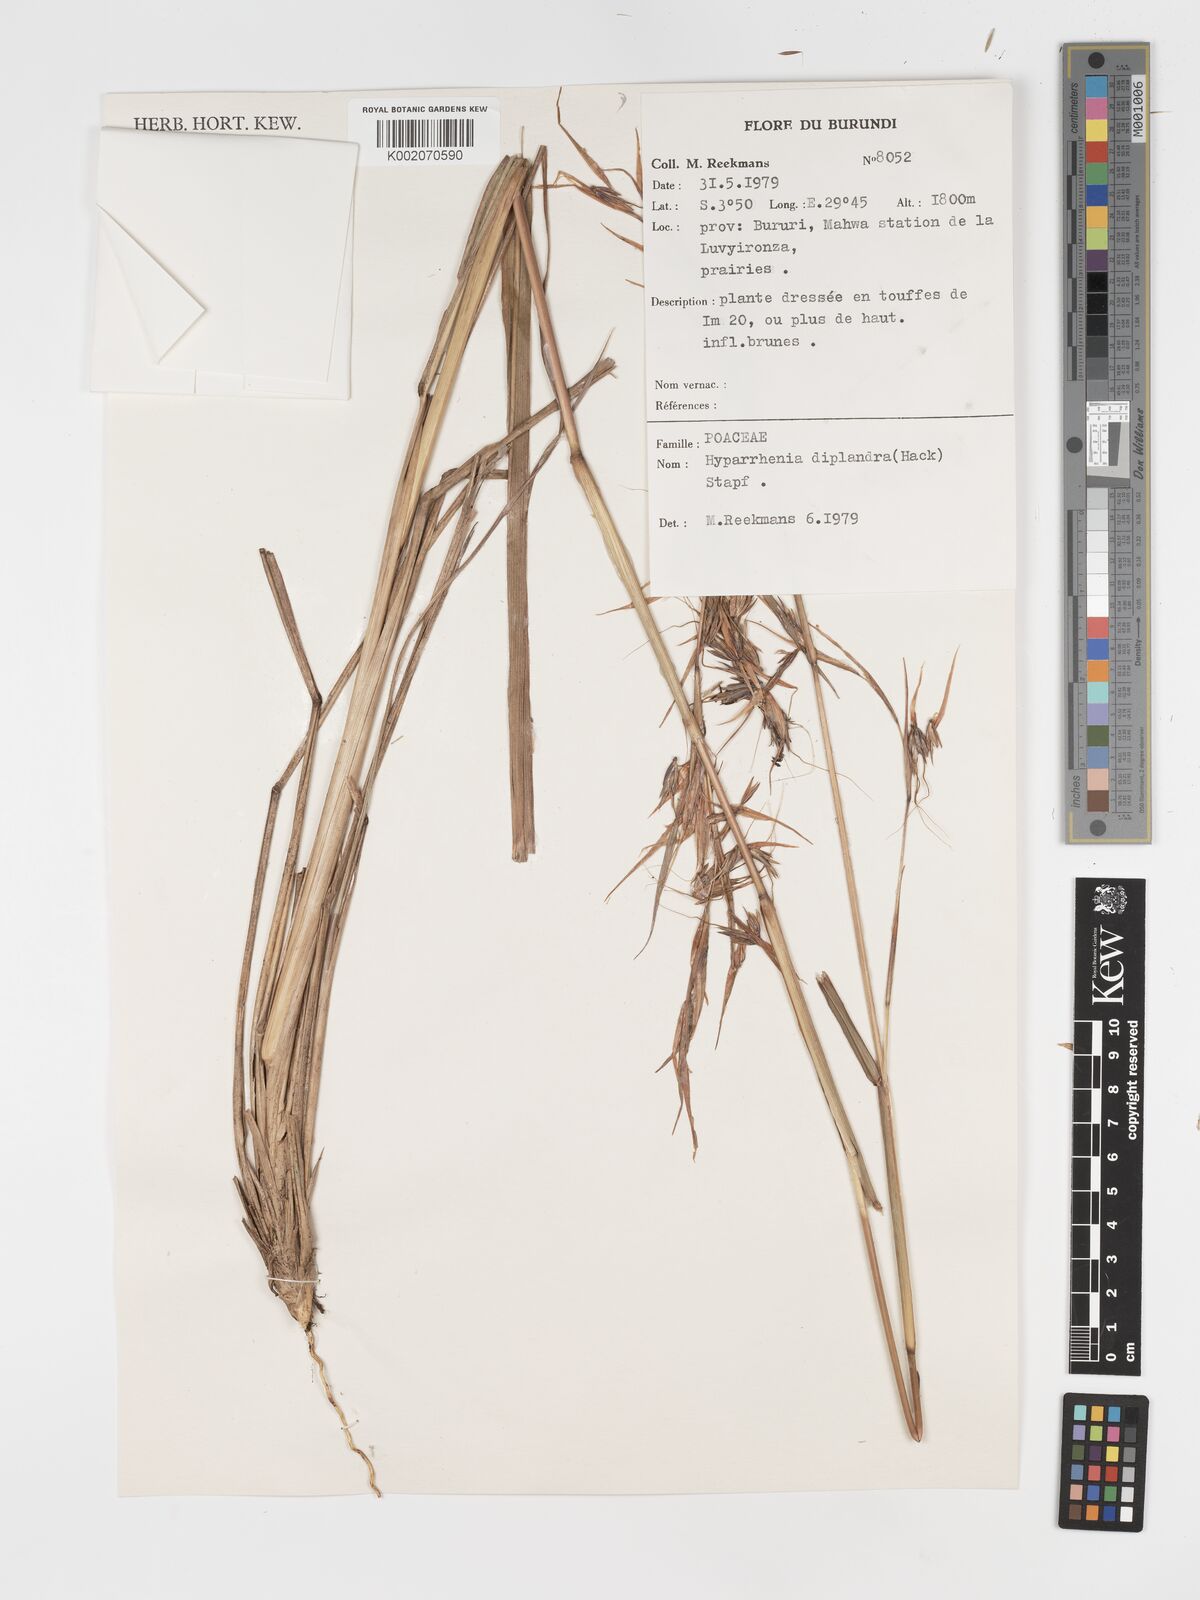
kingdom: Plantae
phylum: Tracheophyta
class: Liliopsida
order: Poales
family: Poaceae
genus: Hyparrhenia
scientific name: Hyparrhenia diplandra
